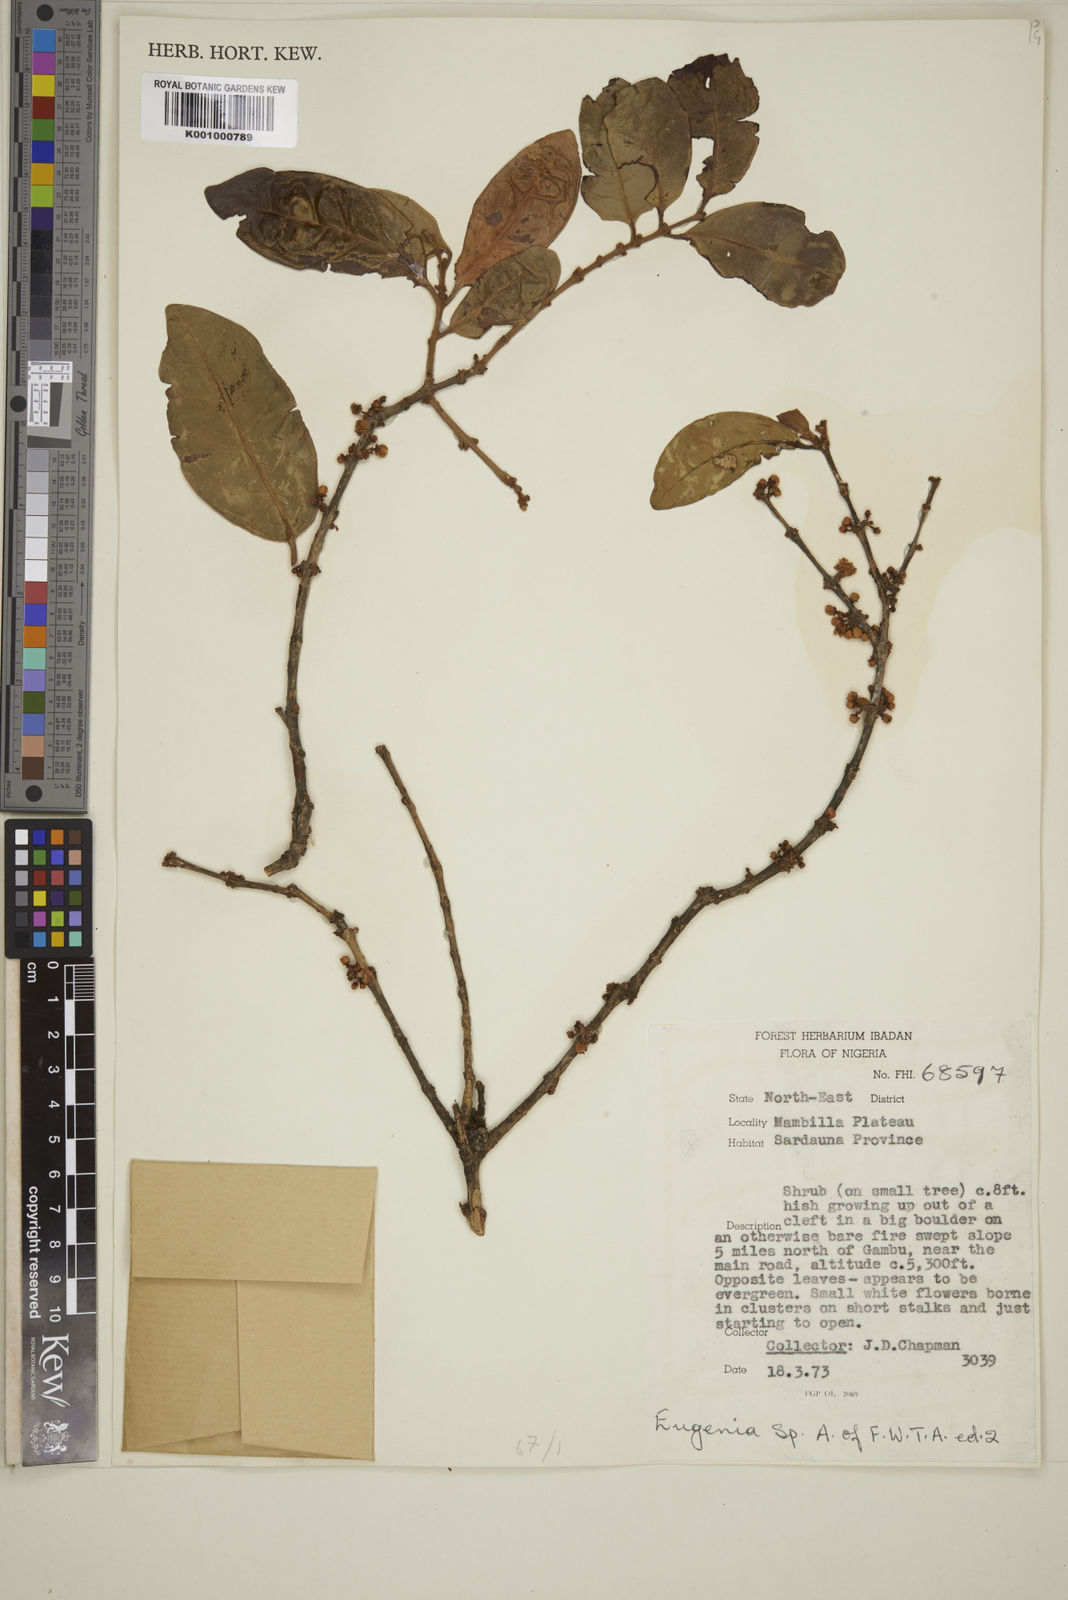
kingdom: Plantae
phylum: Tracheophyta
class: Magnoliopsida
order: Myrtales
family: Myrtaceae
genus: Eugenia
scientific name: Eugenia
